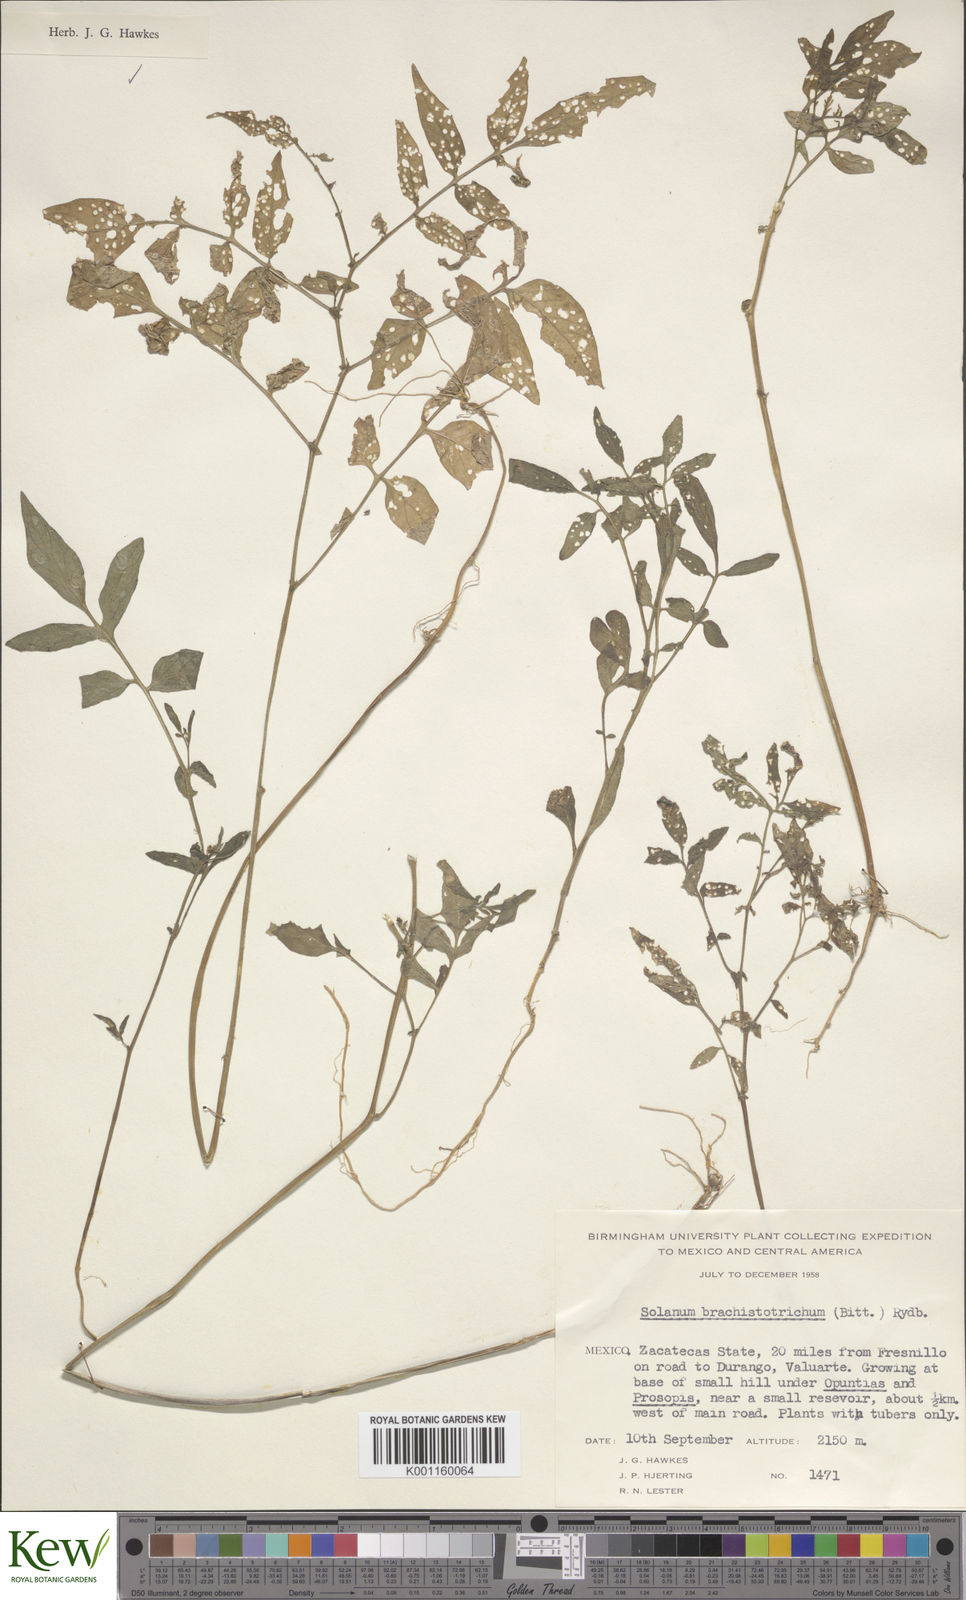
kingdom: Plantae
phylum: Tracheophyta
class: Magnoliopsida
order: Solanales
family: Solanaceae
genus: Solanum
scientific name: Solanum
